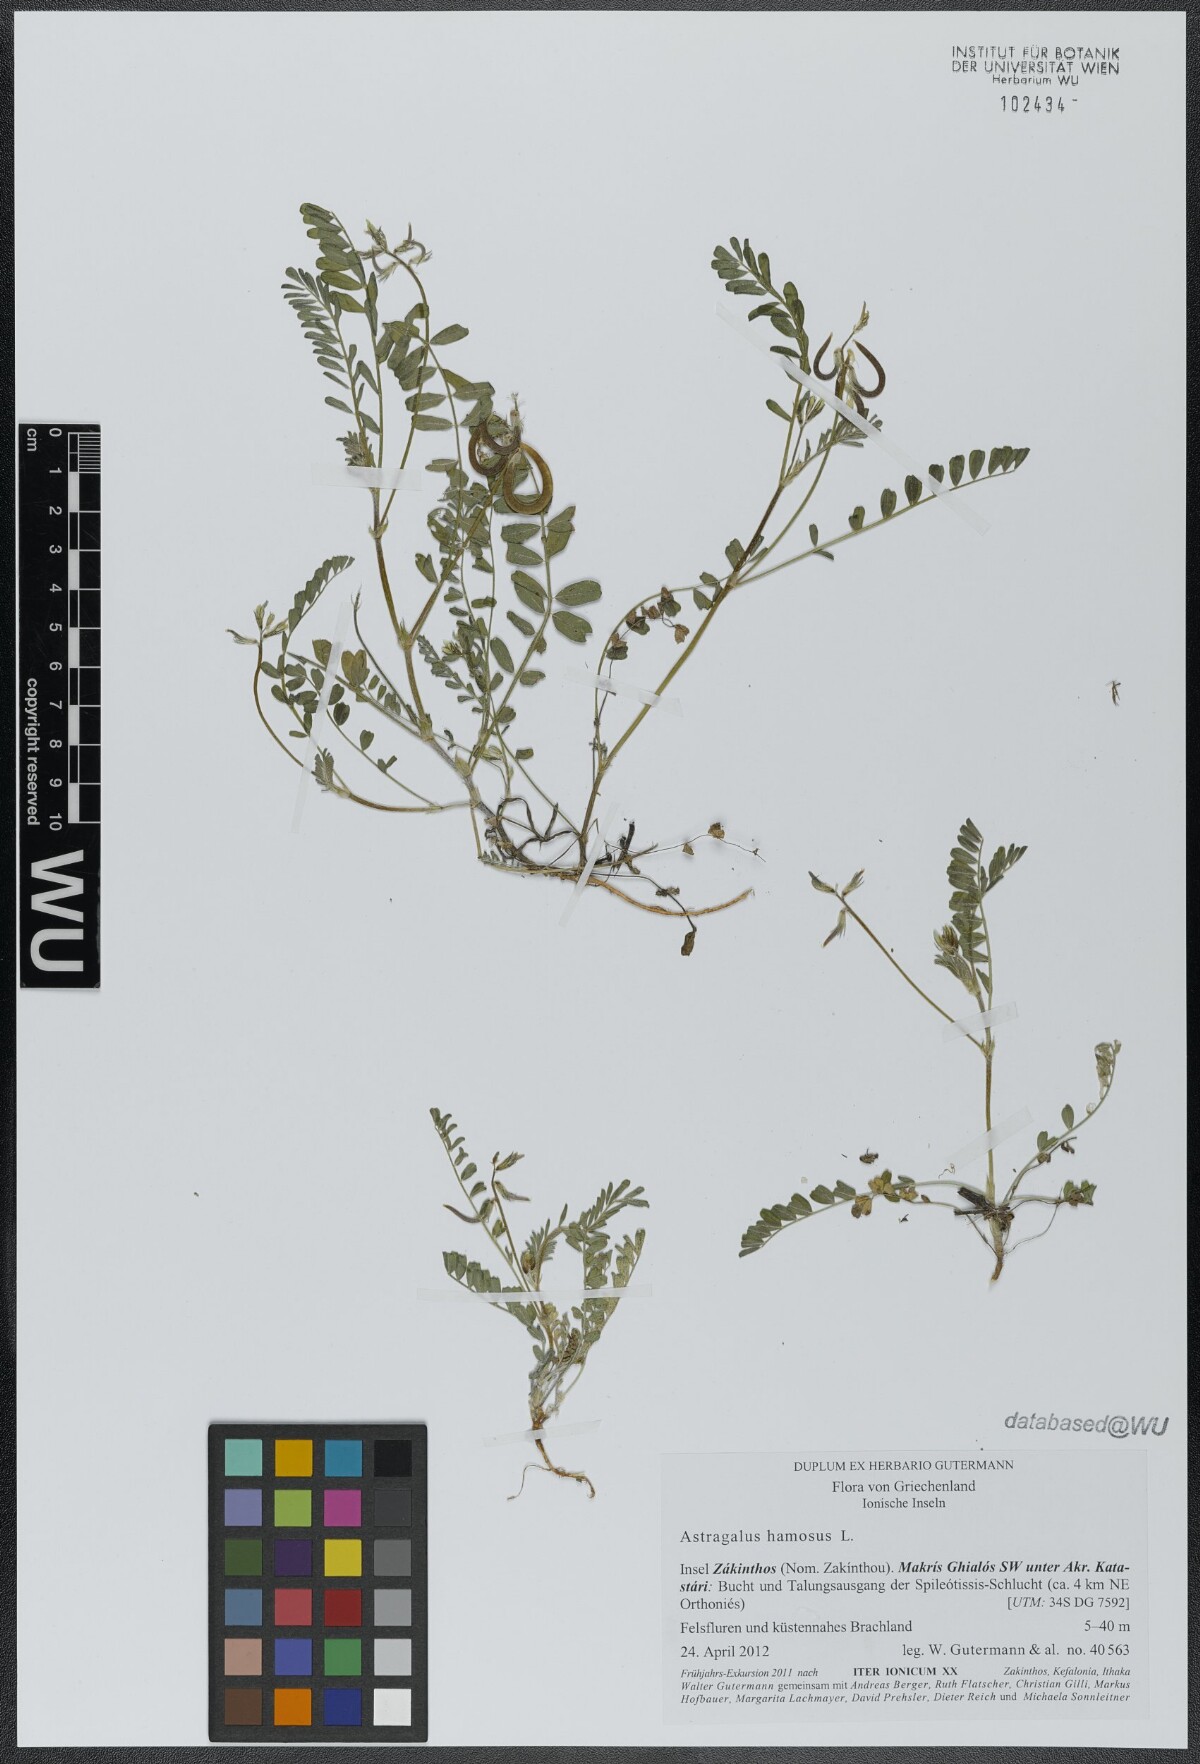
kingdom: Plantae
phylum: Tracheophyta
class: Magnoliopsida
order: Fabales
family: Fabaceae
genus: Astragalus
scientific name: Astragalus hamosus
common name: European milkvetch
